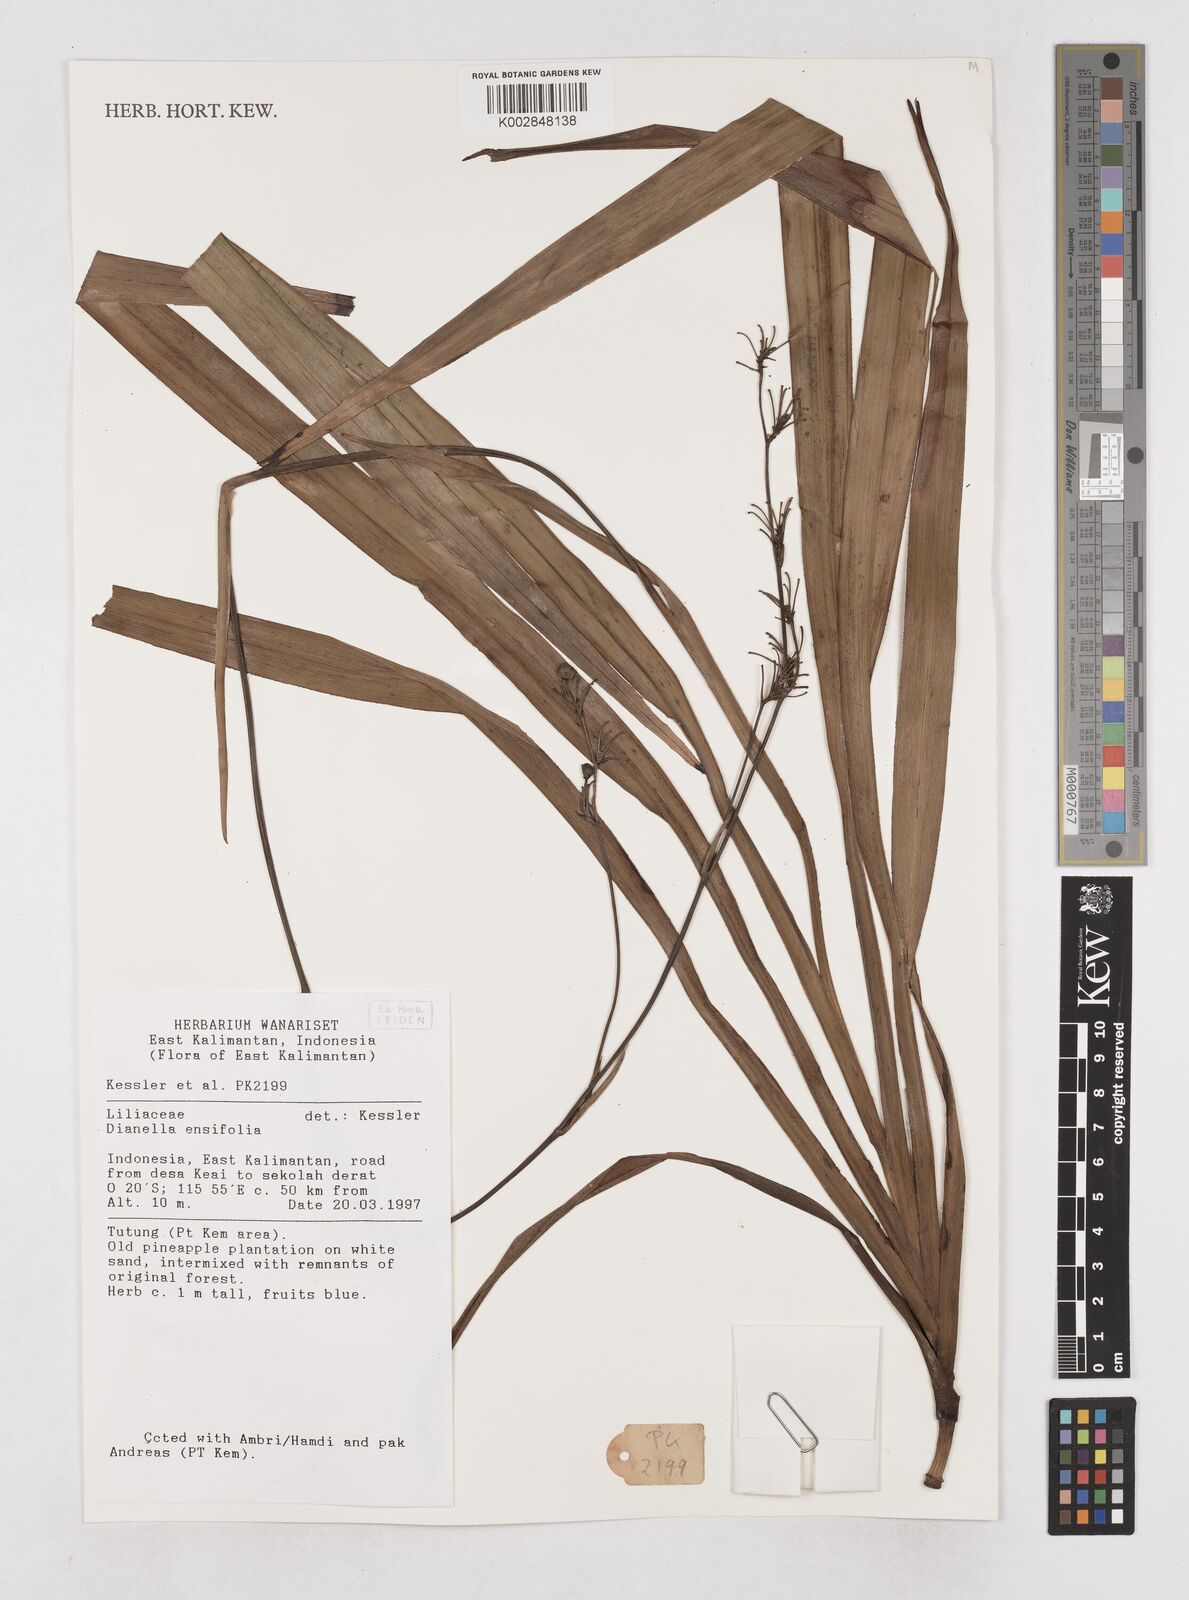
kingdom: Plantae
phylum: Tracheophyta
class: Liliopsida
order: Asparagales
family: Asphodelaceae
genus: Dianella
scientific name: Dianella ensifolia
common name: New zealand lilyplant
